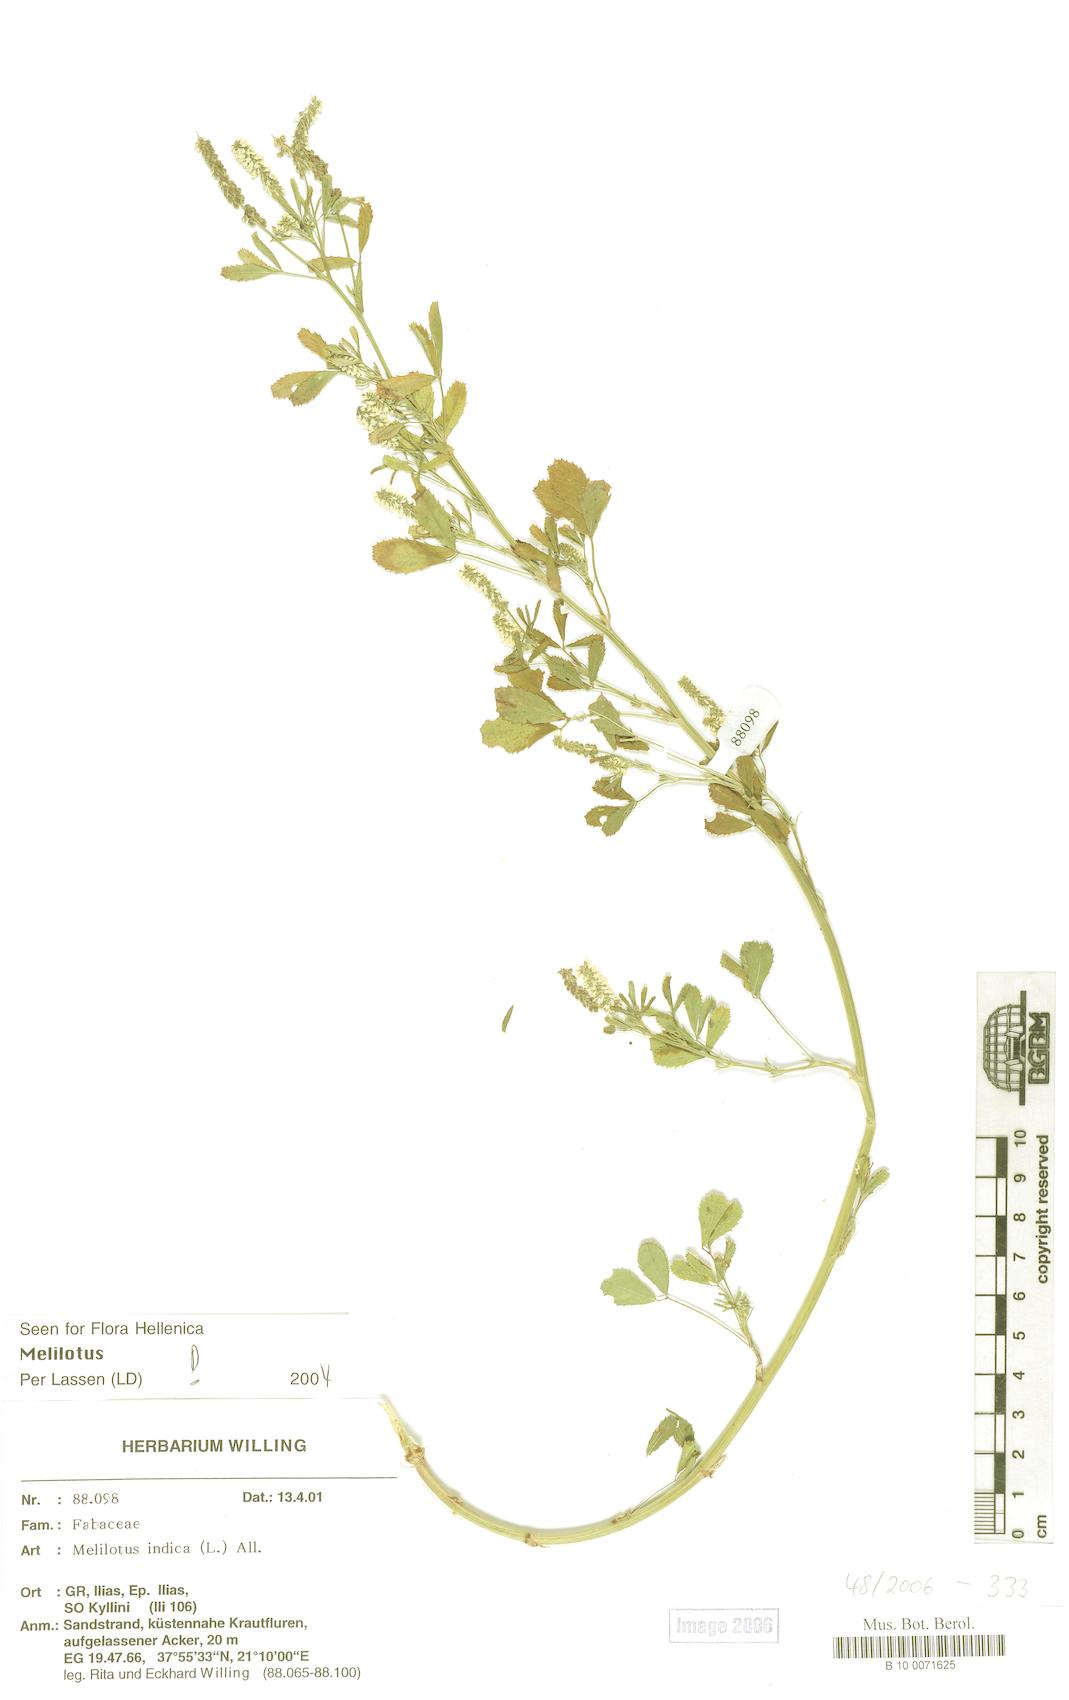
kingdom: Plantae
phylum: Tracheophyta
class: Magnoliopsida
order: Fabales
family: Fabaceae
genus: Melilotus
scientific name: Melilotus indicus
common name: Small melilot
